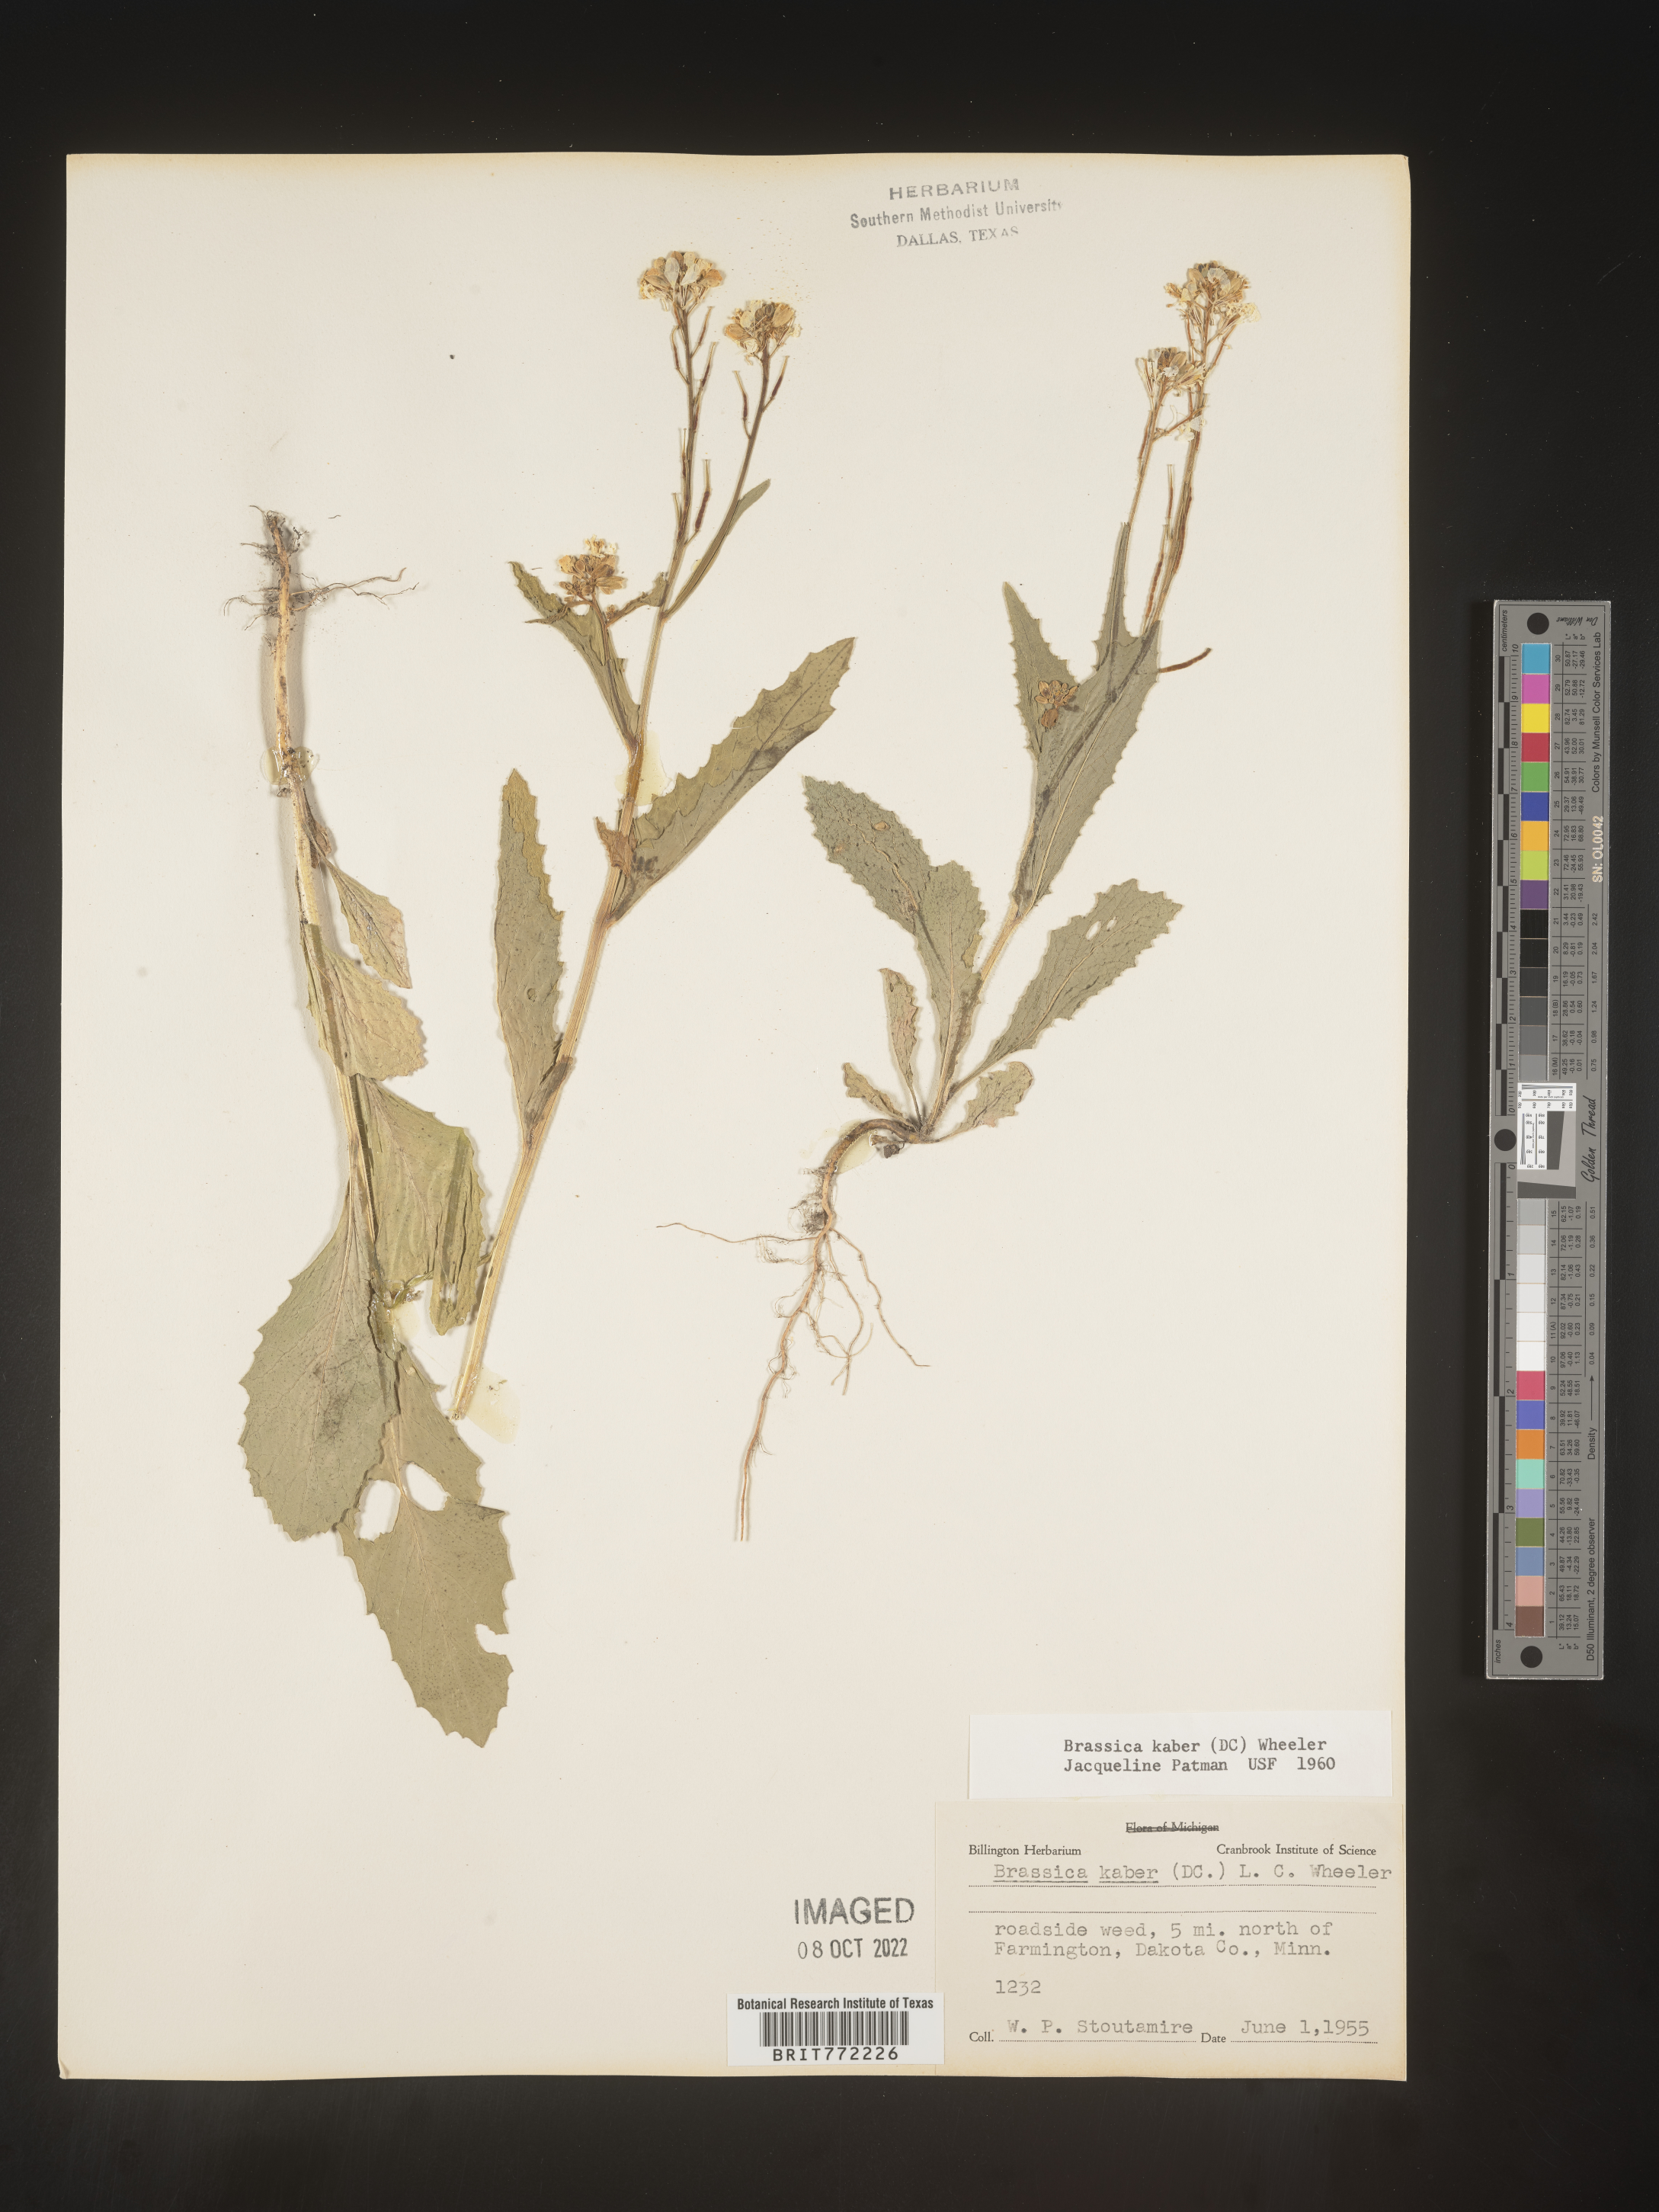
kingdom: Plantae
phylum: Tracheophyta
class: Magnoliopsida
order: Brassicales
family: Brassicaceae
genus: Sinapis
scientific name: Sinapis arvensis
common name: Charlock
